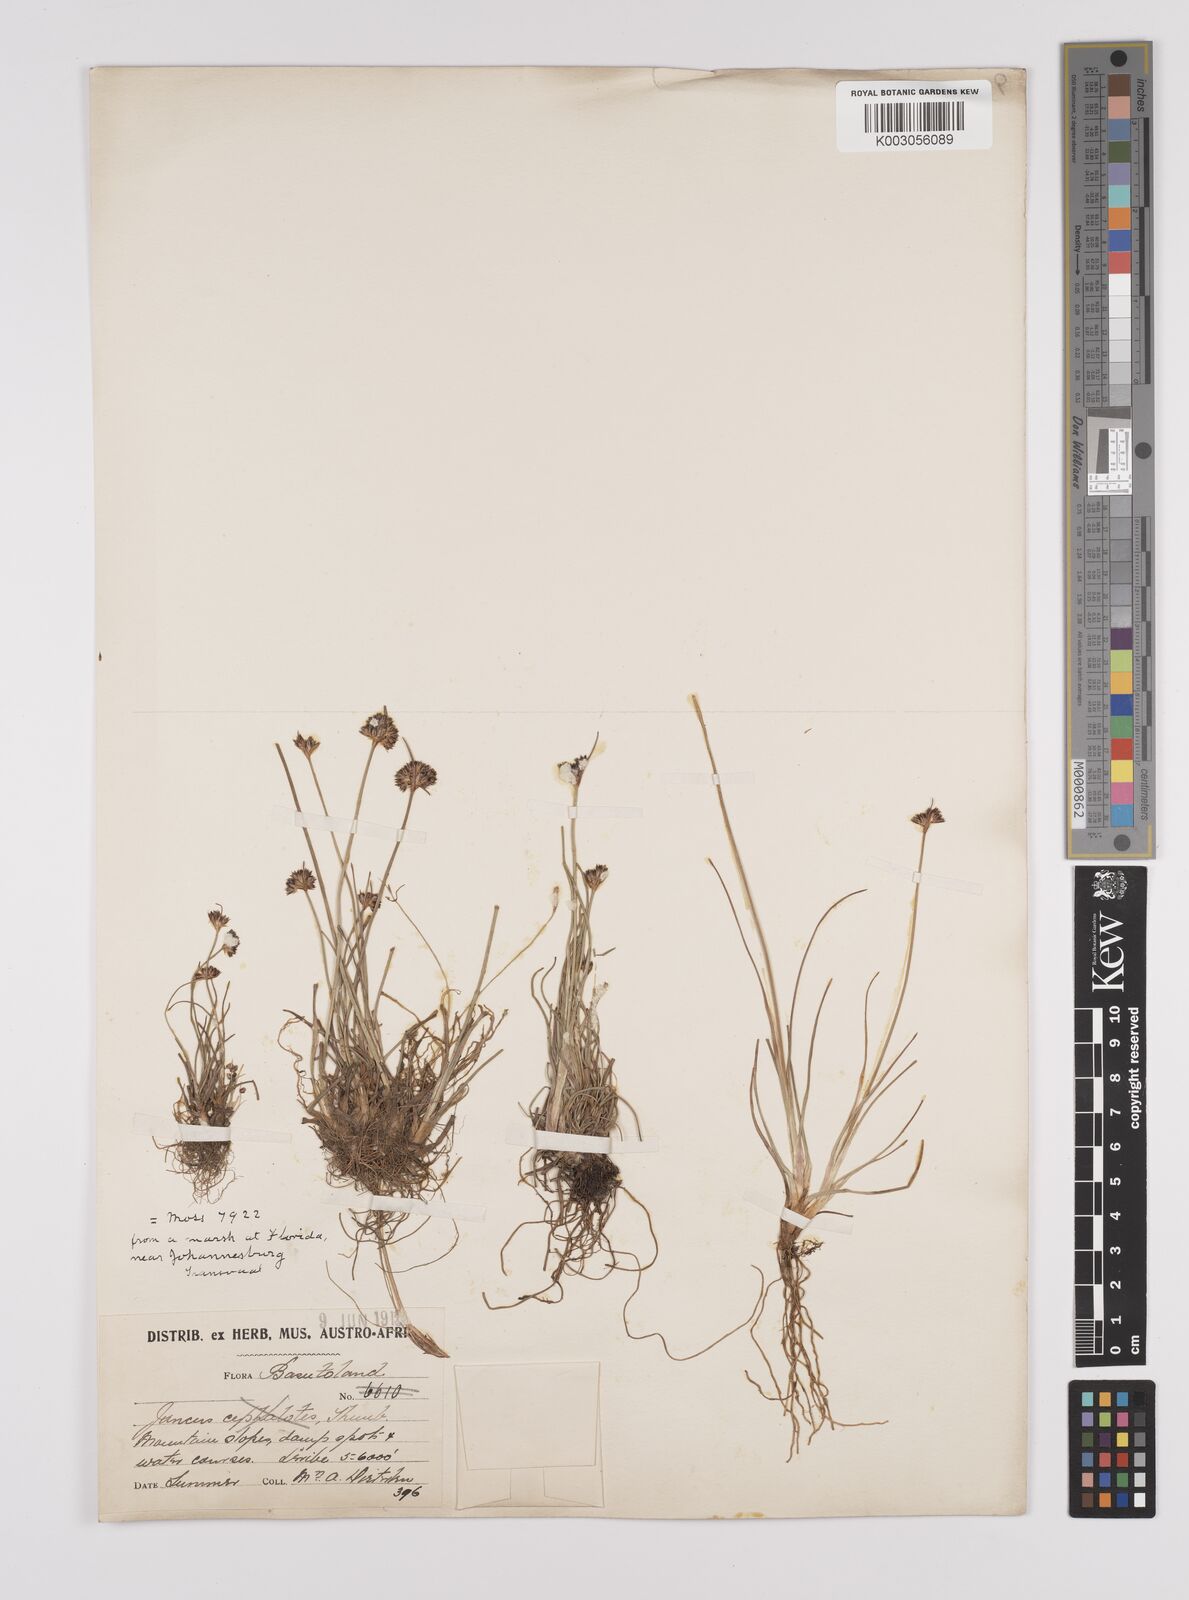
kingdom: Plantae
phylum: Tracheophyta
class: Liliopsida
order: Poales
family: Juncaceae
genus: Juncus
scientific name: Juncus dregeanus
